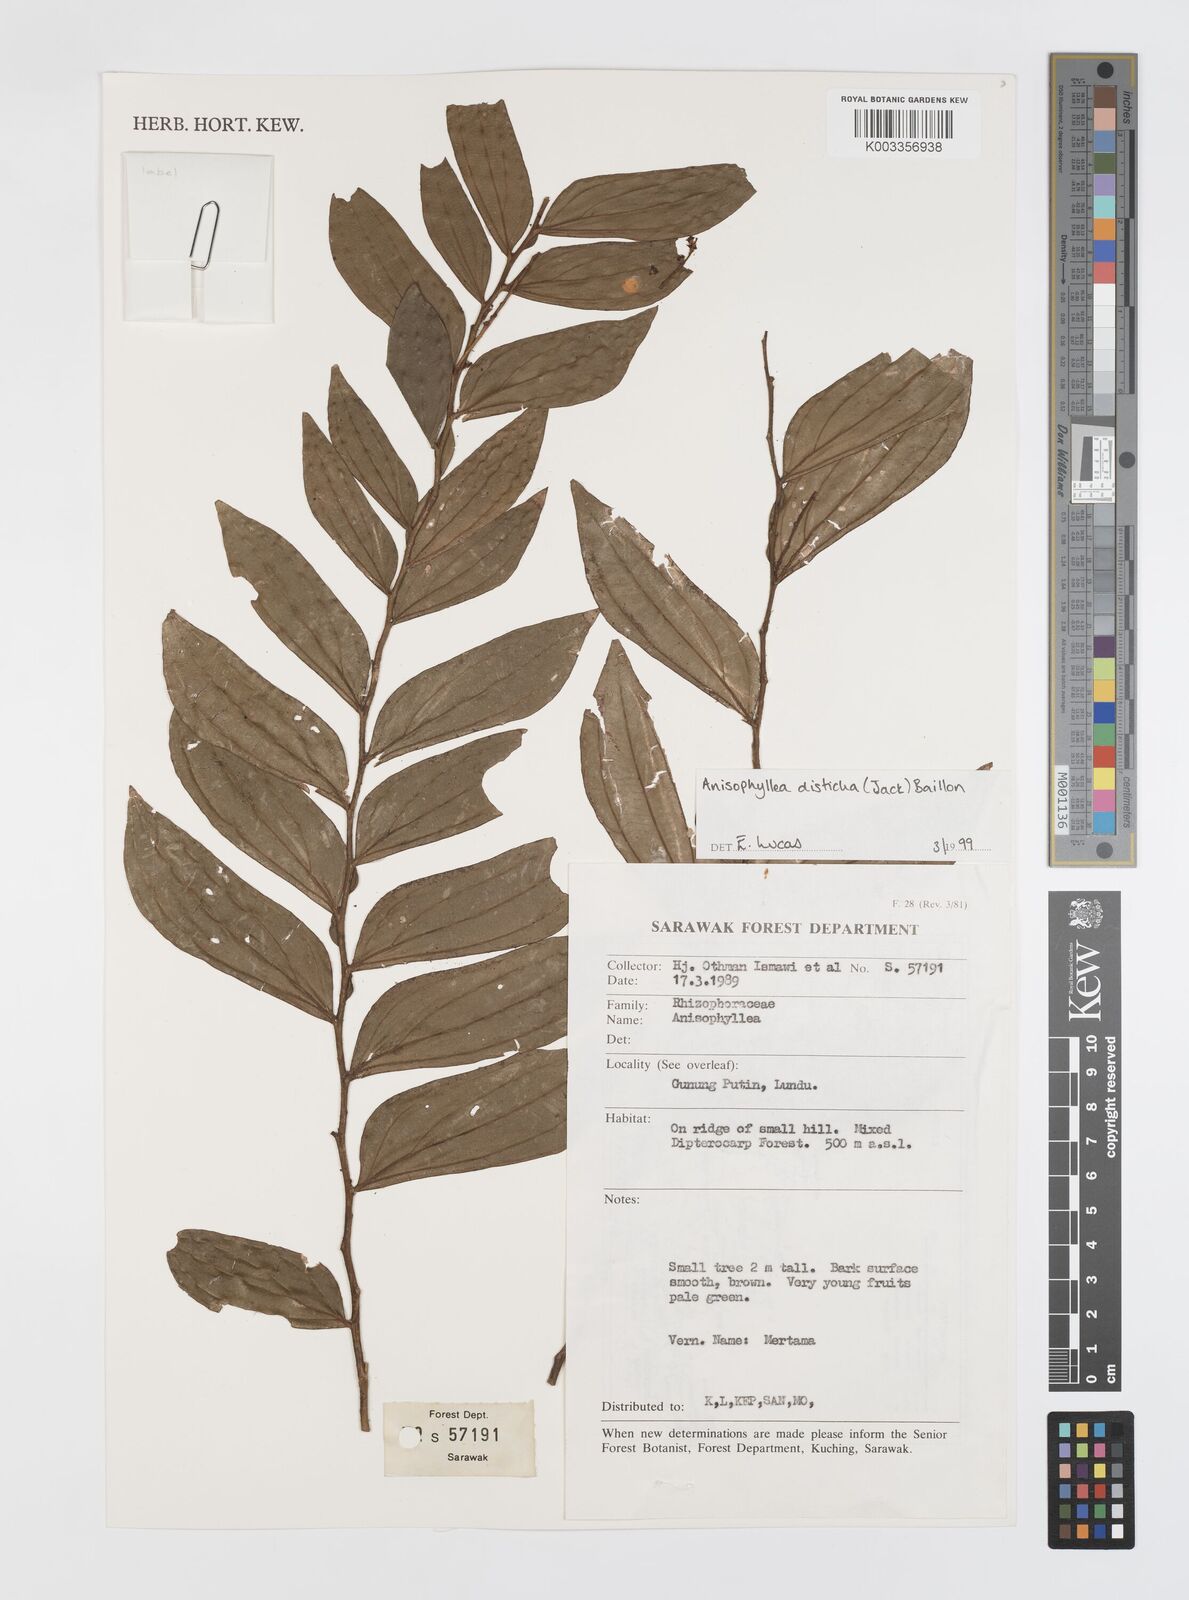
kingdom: Plantae
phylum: Tracheophyta
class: Magnoliopsida
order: Cucurbitales
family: Anisophylleaceae
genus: Anisophyllea
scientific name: Anisophyllea disticha
